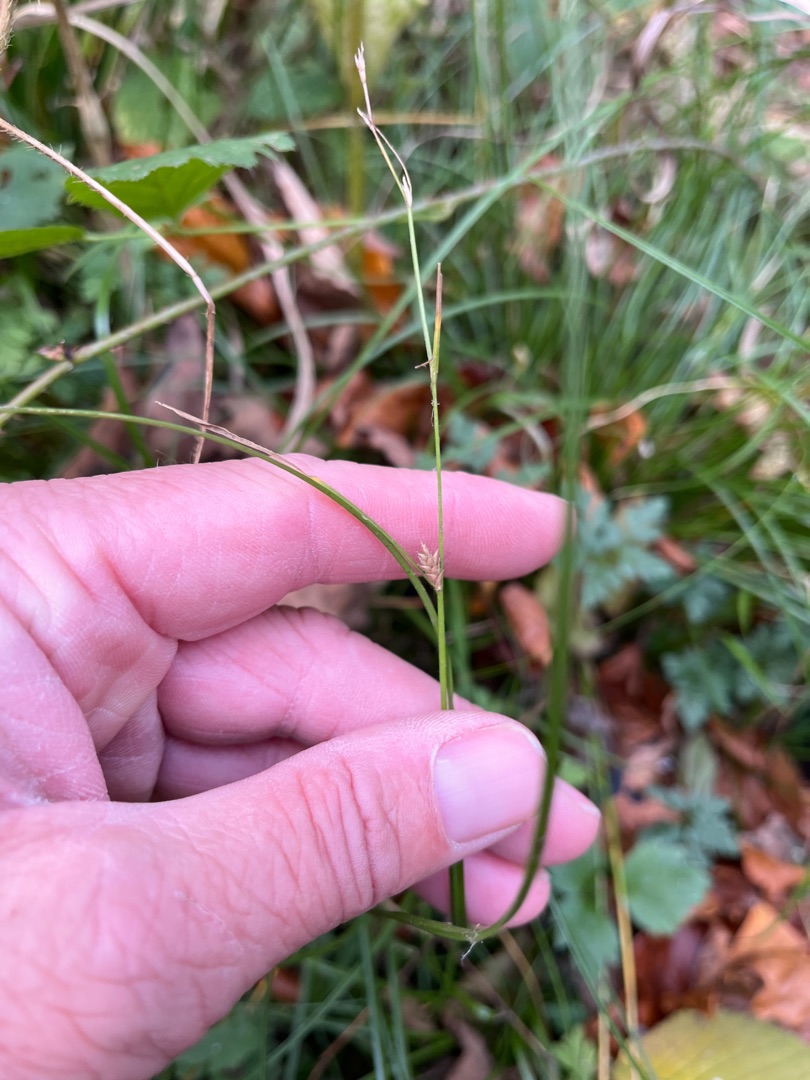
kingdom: Plantae
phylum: Tracheophyta
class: Liliopsida
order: Poales
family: Cyperaceae
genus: Carex
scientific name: Carex remota
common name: Akselblomstret star
